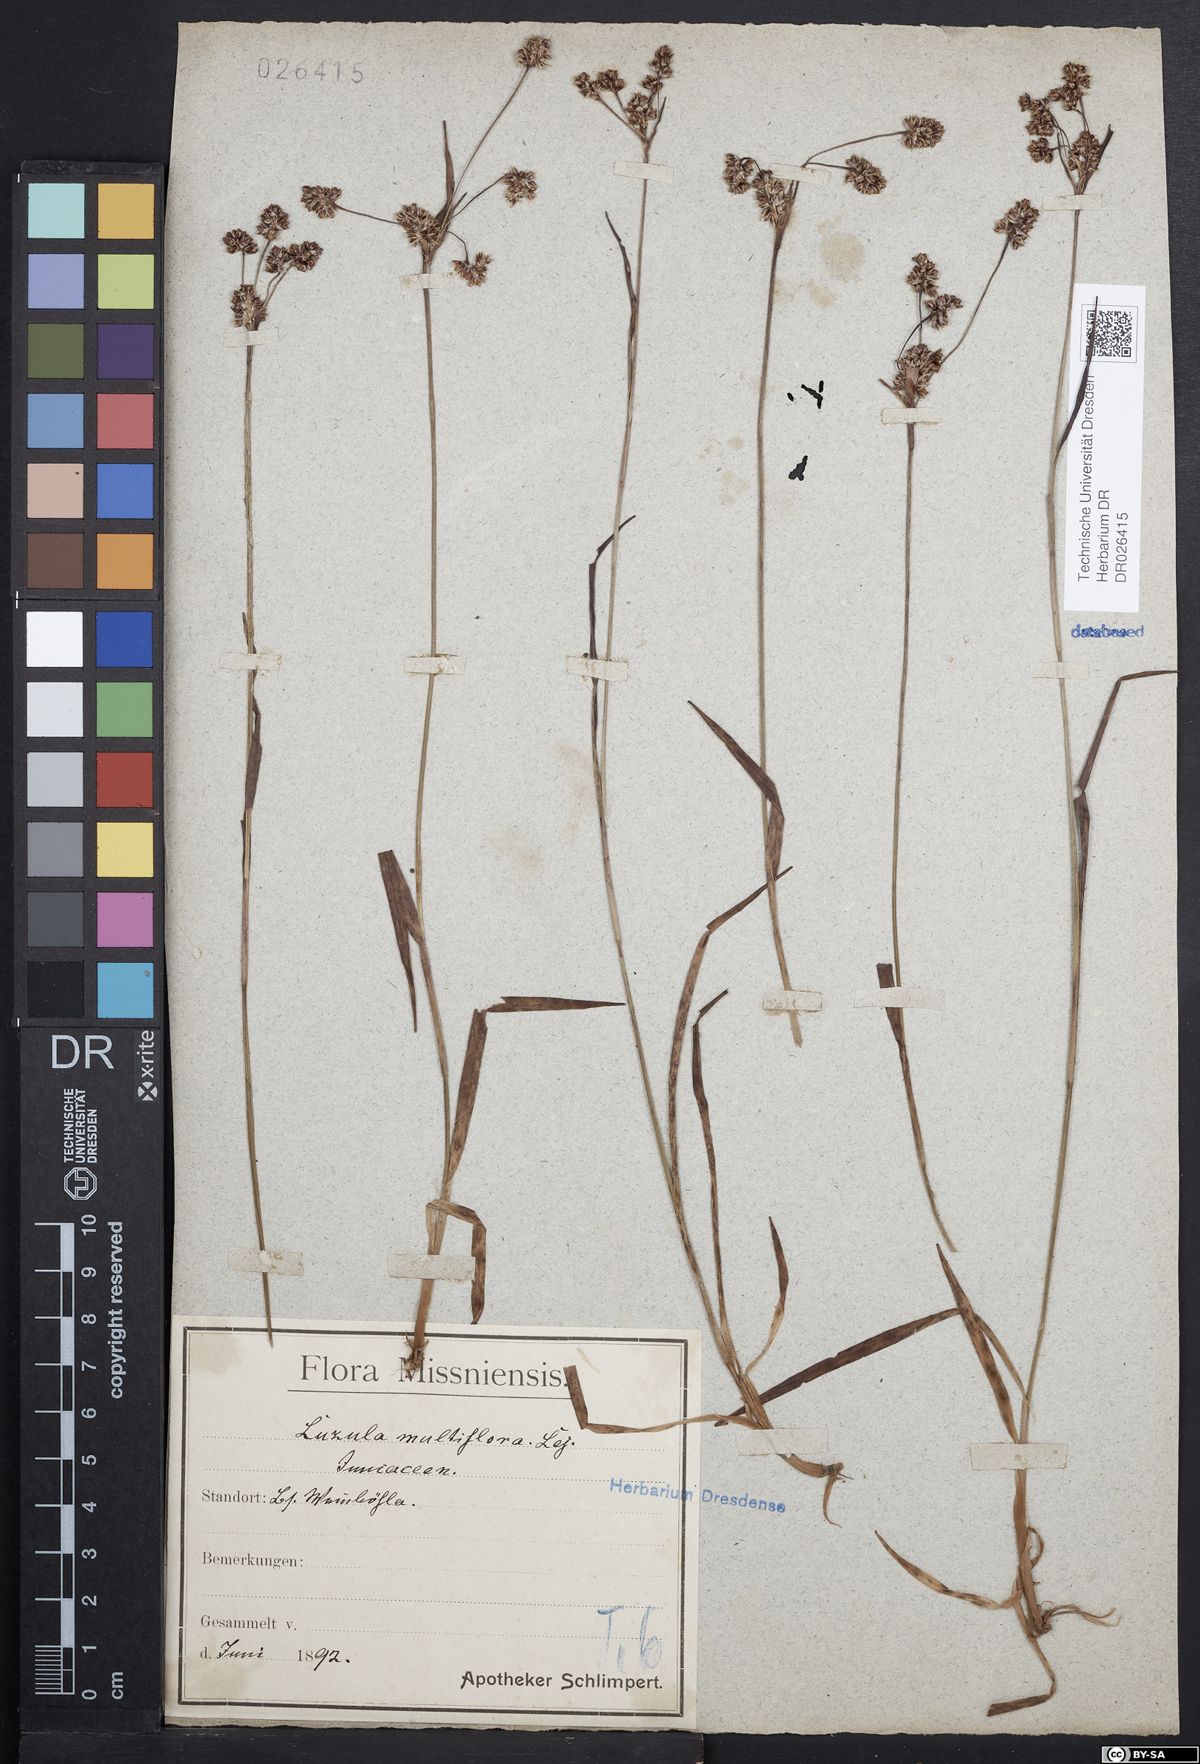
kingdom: Plantae
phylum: Tracheophyta
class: Liliopsida
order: Poales
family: Juncaceae
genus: Luzula
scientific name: Luzula multiflora
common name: Heath wood-rush
